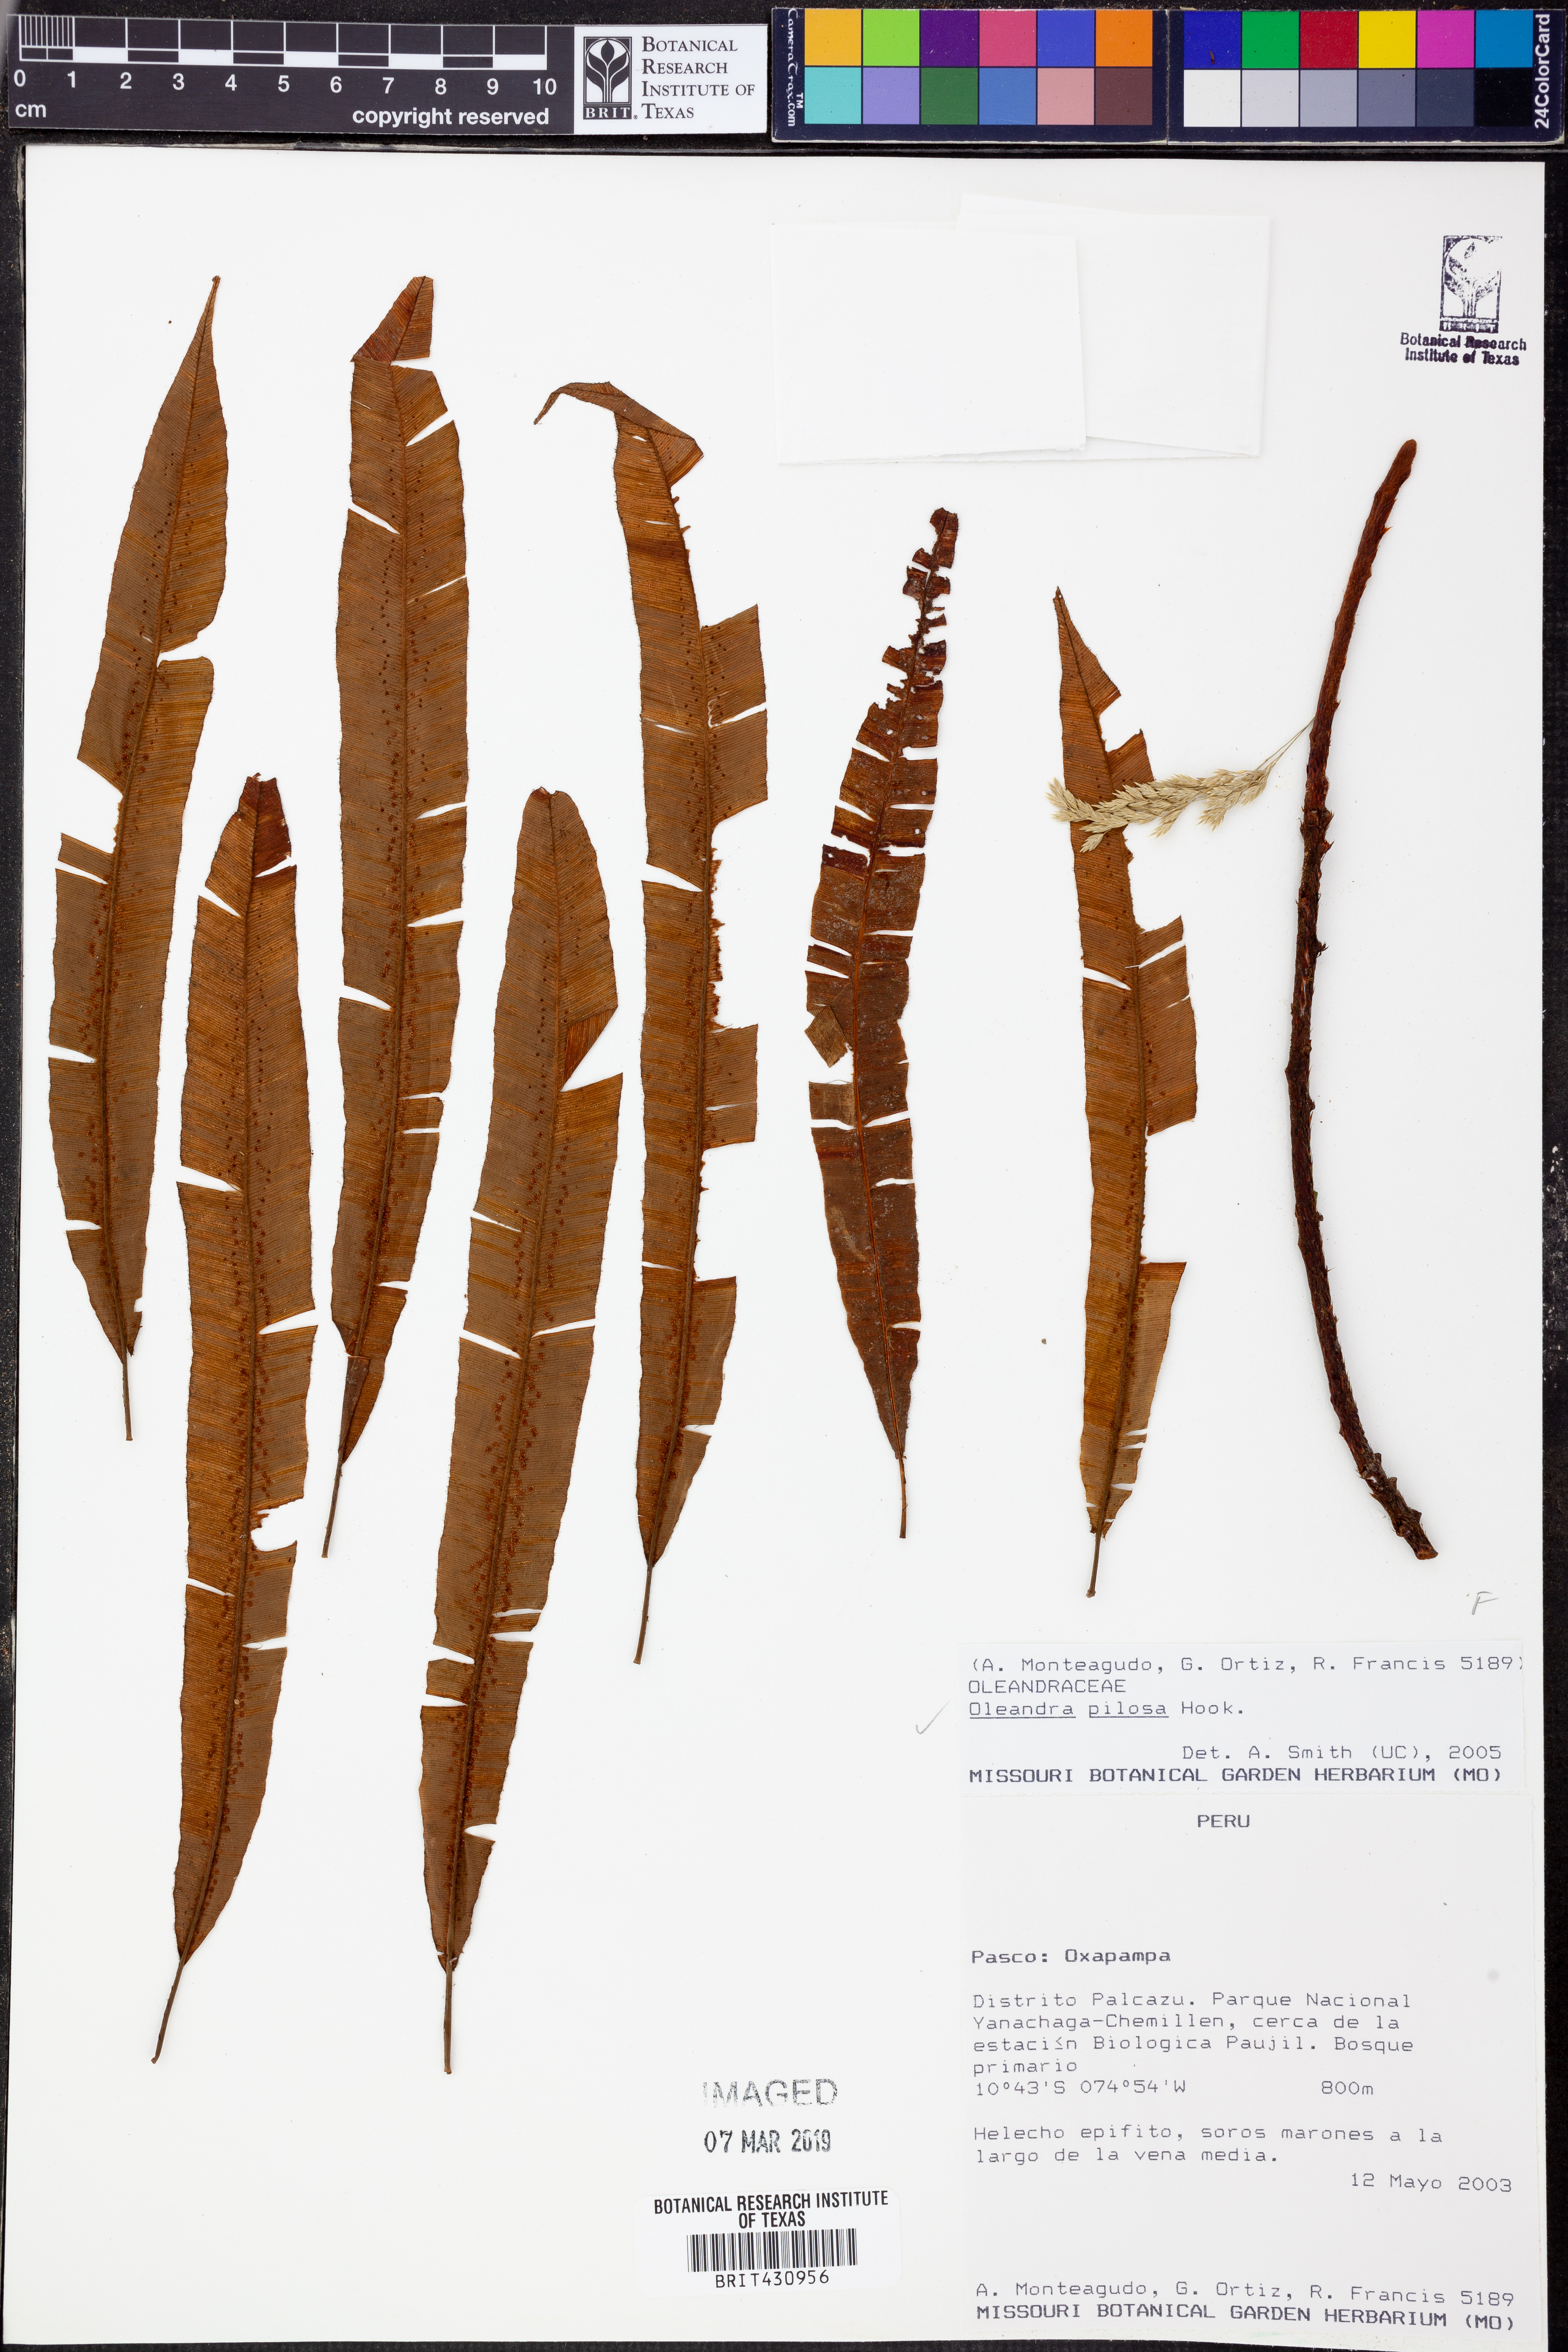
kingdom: Plantae
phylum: Tracheophyta
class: Polypodiopsida
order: Polypodiales
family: Oleandraceae
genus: Oleandra
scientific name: Oleandra pilosa
